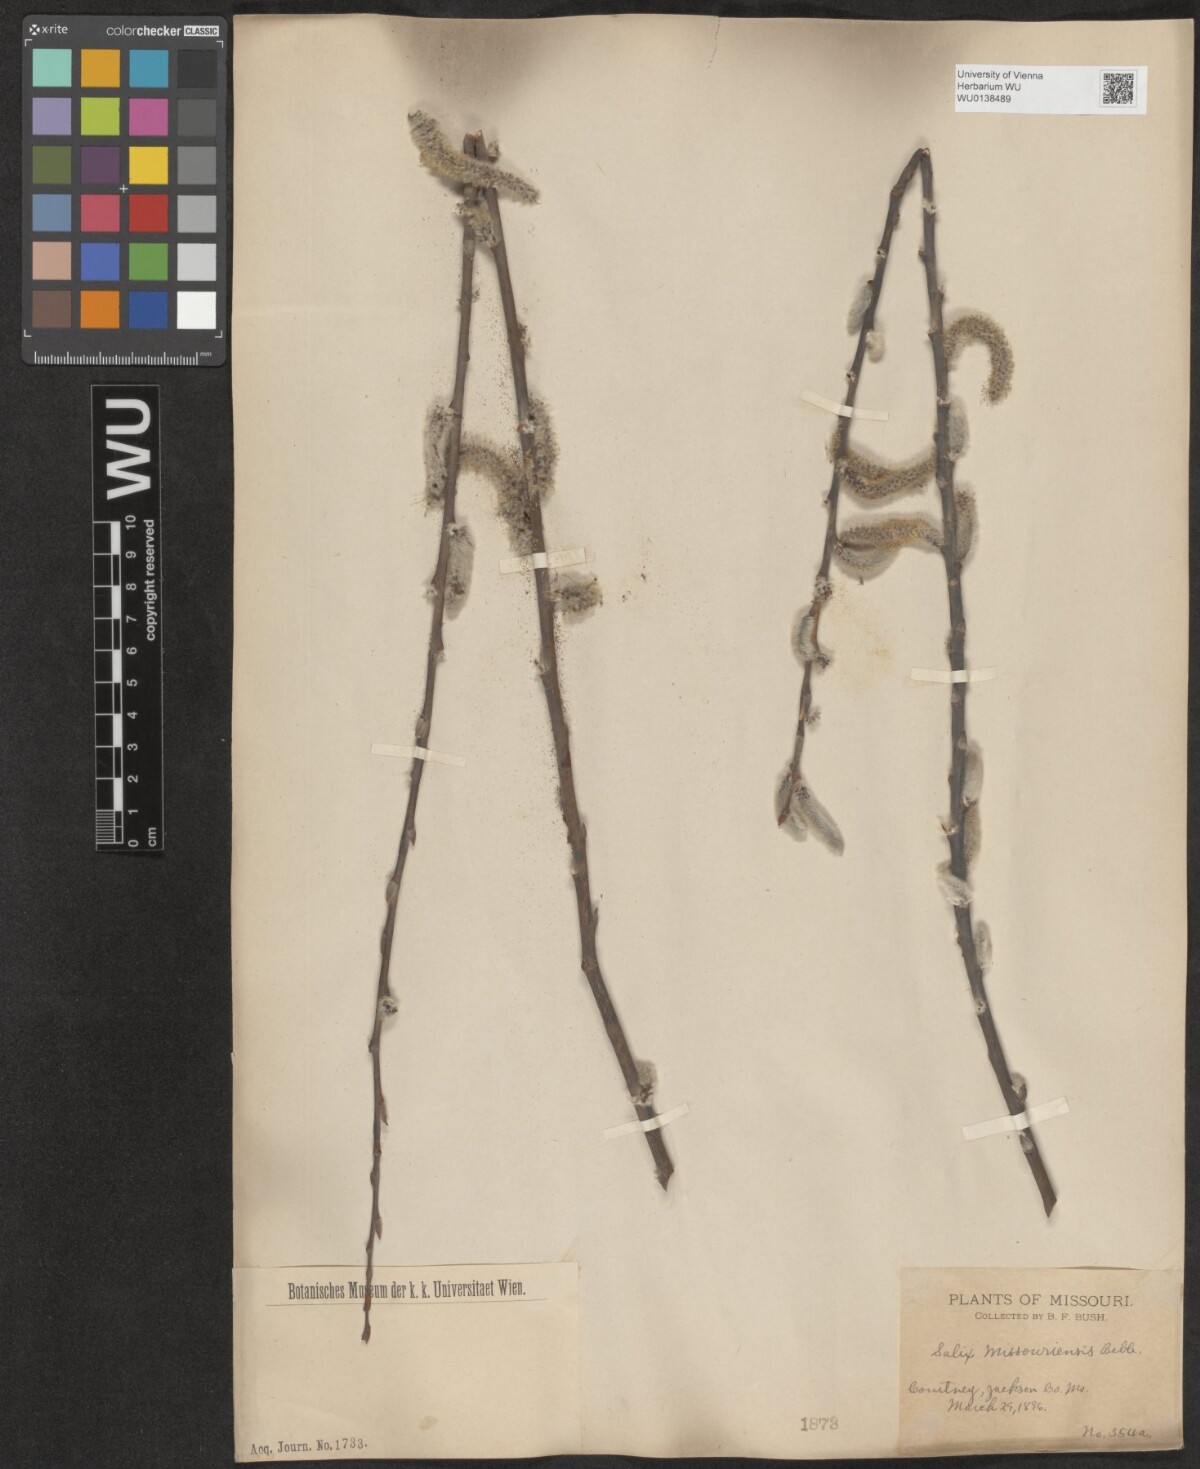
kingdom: Plantae
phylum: Tracheophyta
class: Magnoliopsida
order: Malpighiales
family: Salicaceae
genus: Salix
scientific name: Salix eriocephala
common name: Heart-leaved willow
